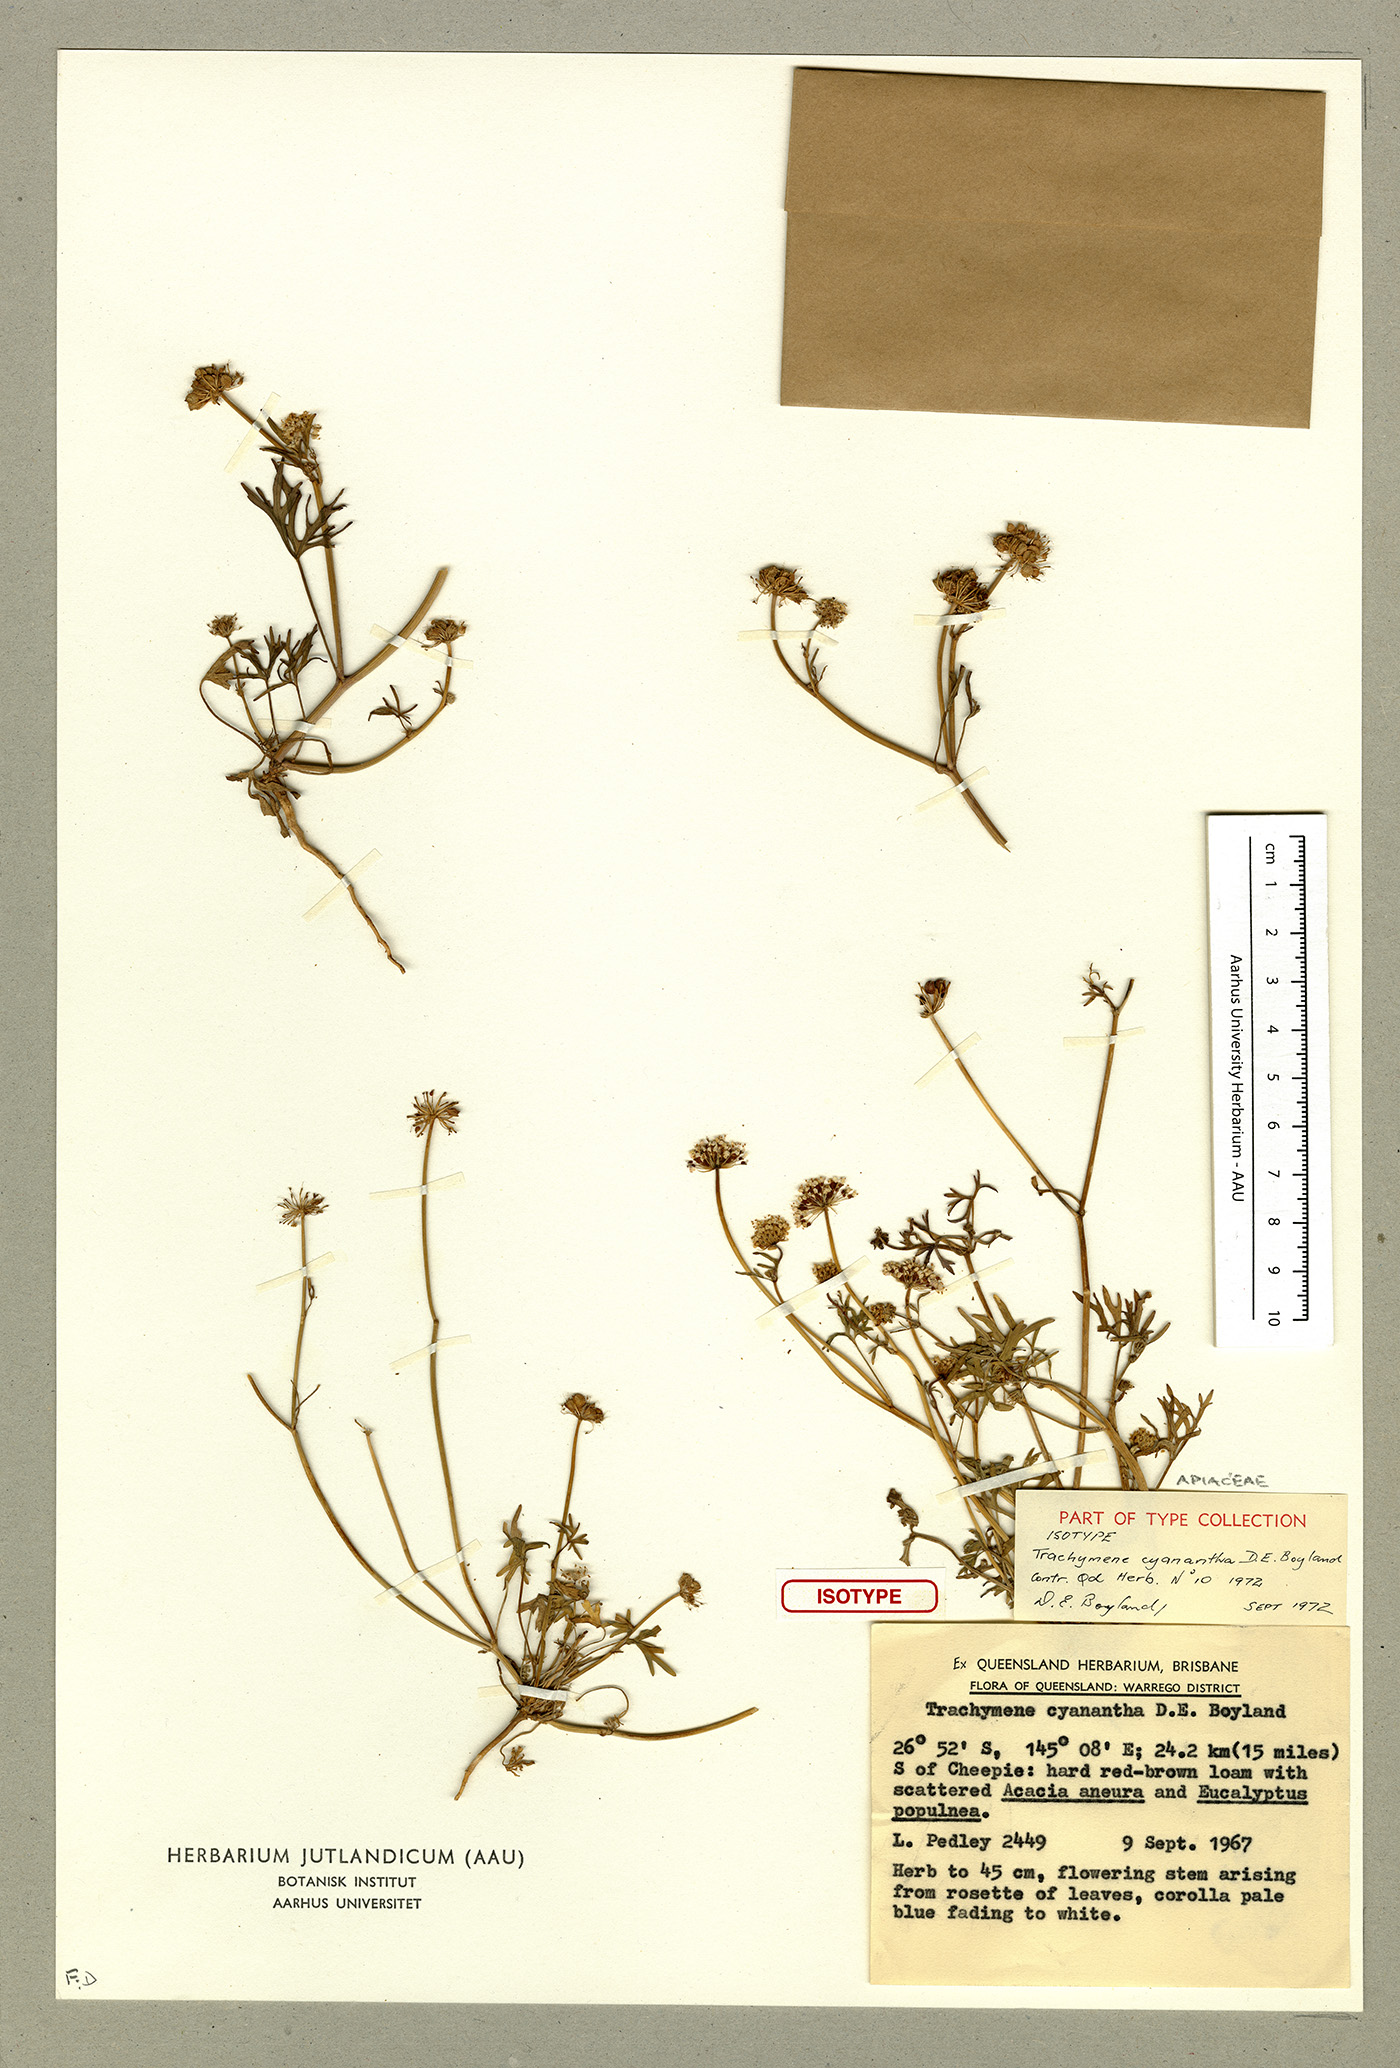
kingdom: Plantae
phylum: Tracheophyta
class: Magnoliopsida
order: Apiales
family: Araliaceae
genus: Trachymene
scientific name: Trachymene cyanantha
